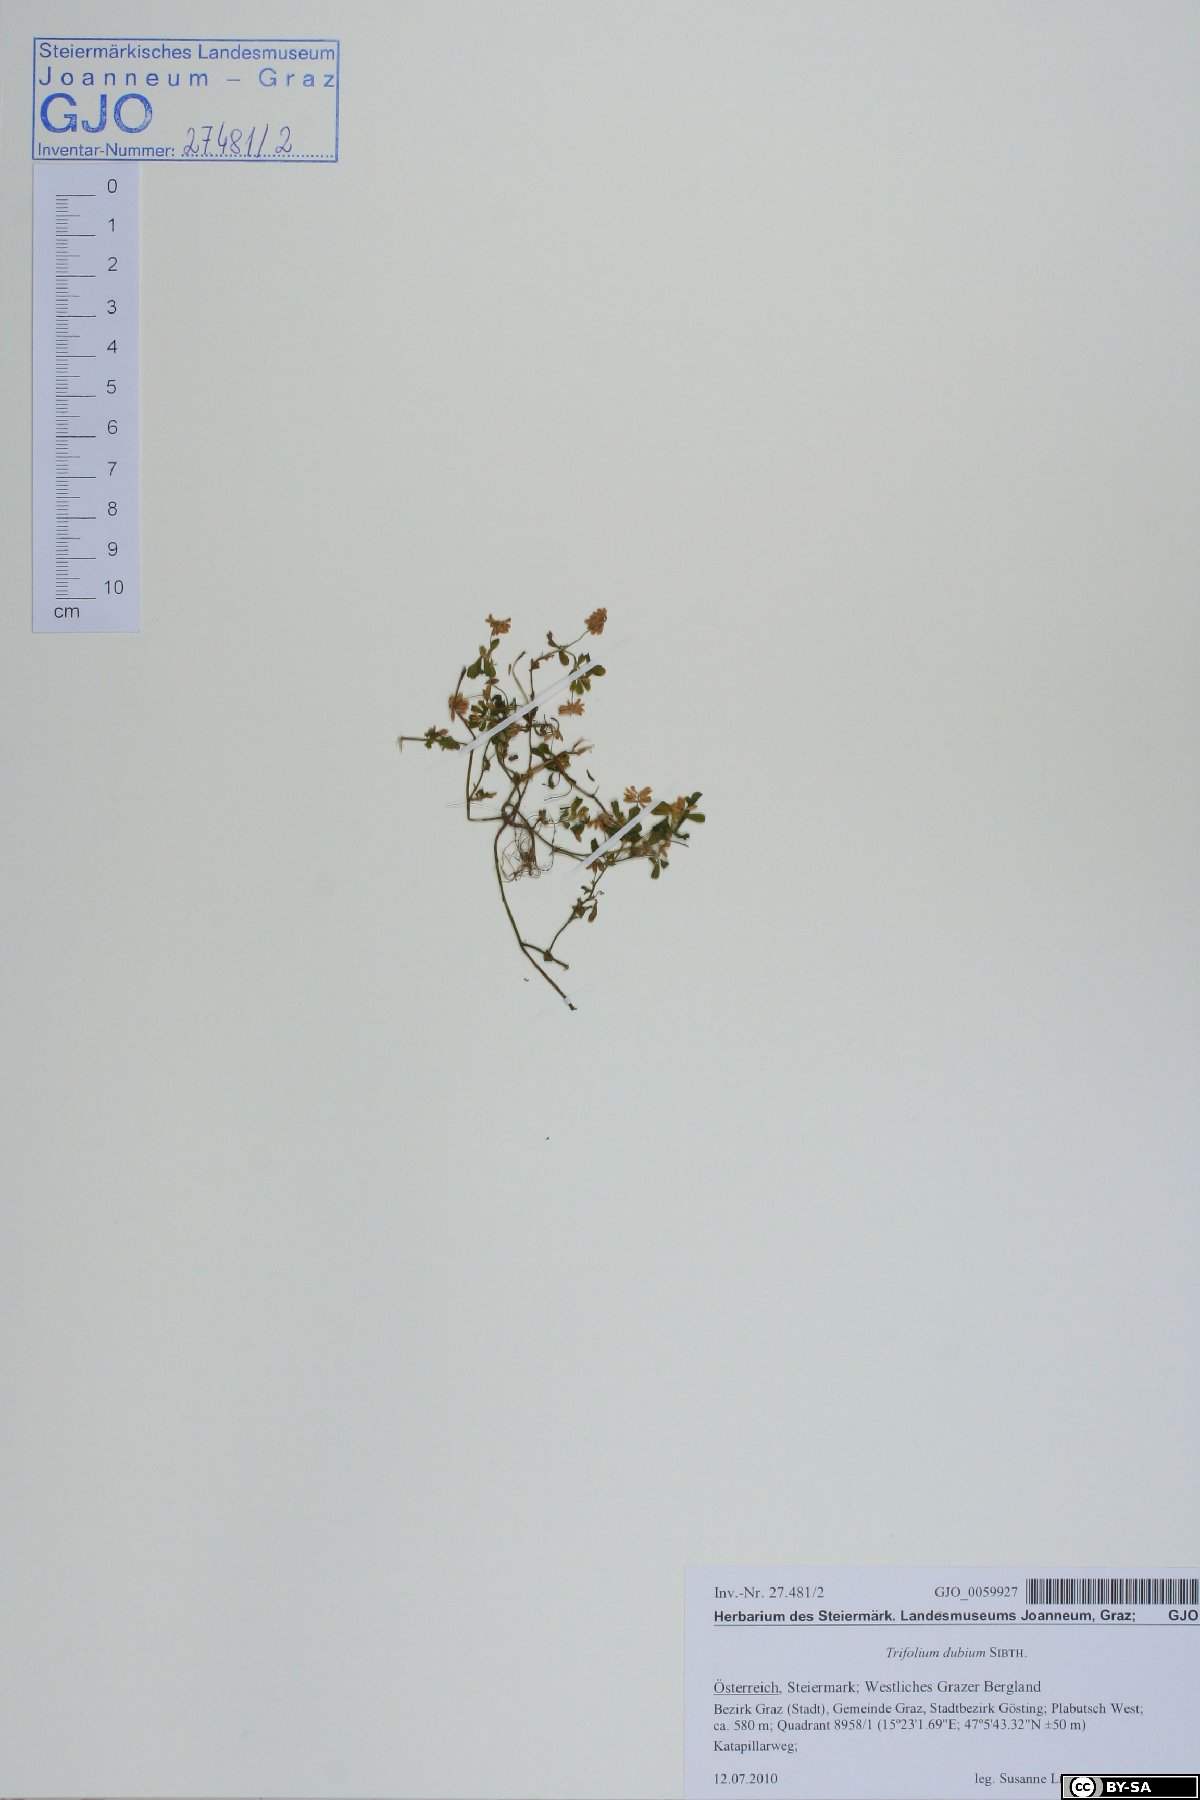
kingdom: Plantae
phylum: Tracheophyta
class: Magnoliopsida
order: Fabales
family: Fabaceae
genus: Trifolium
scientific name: Trifolium dubium
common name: Suckling clover
